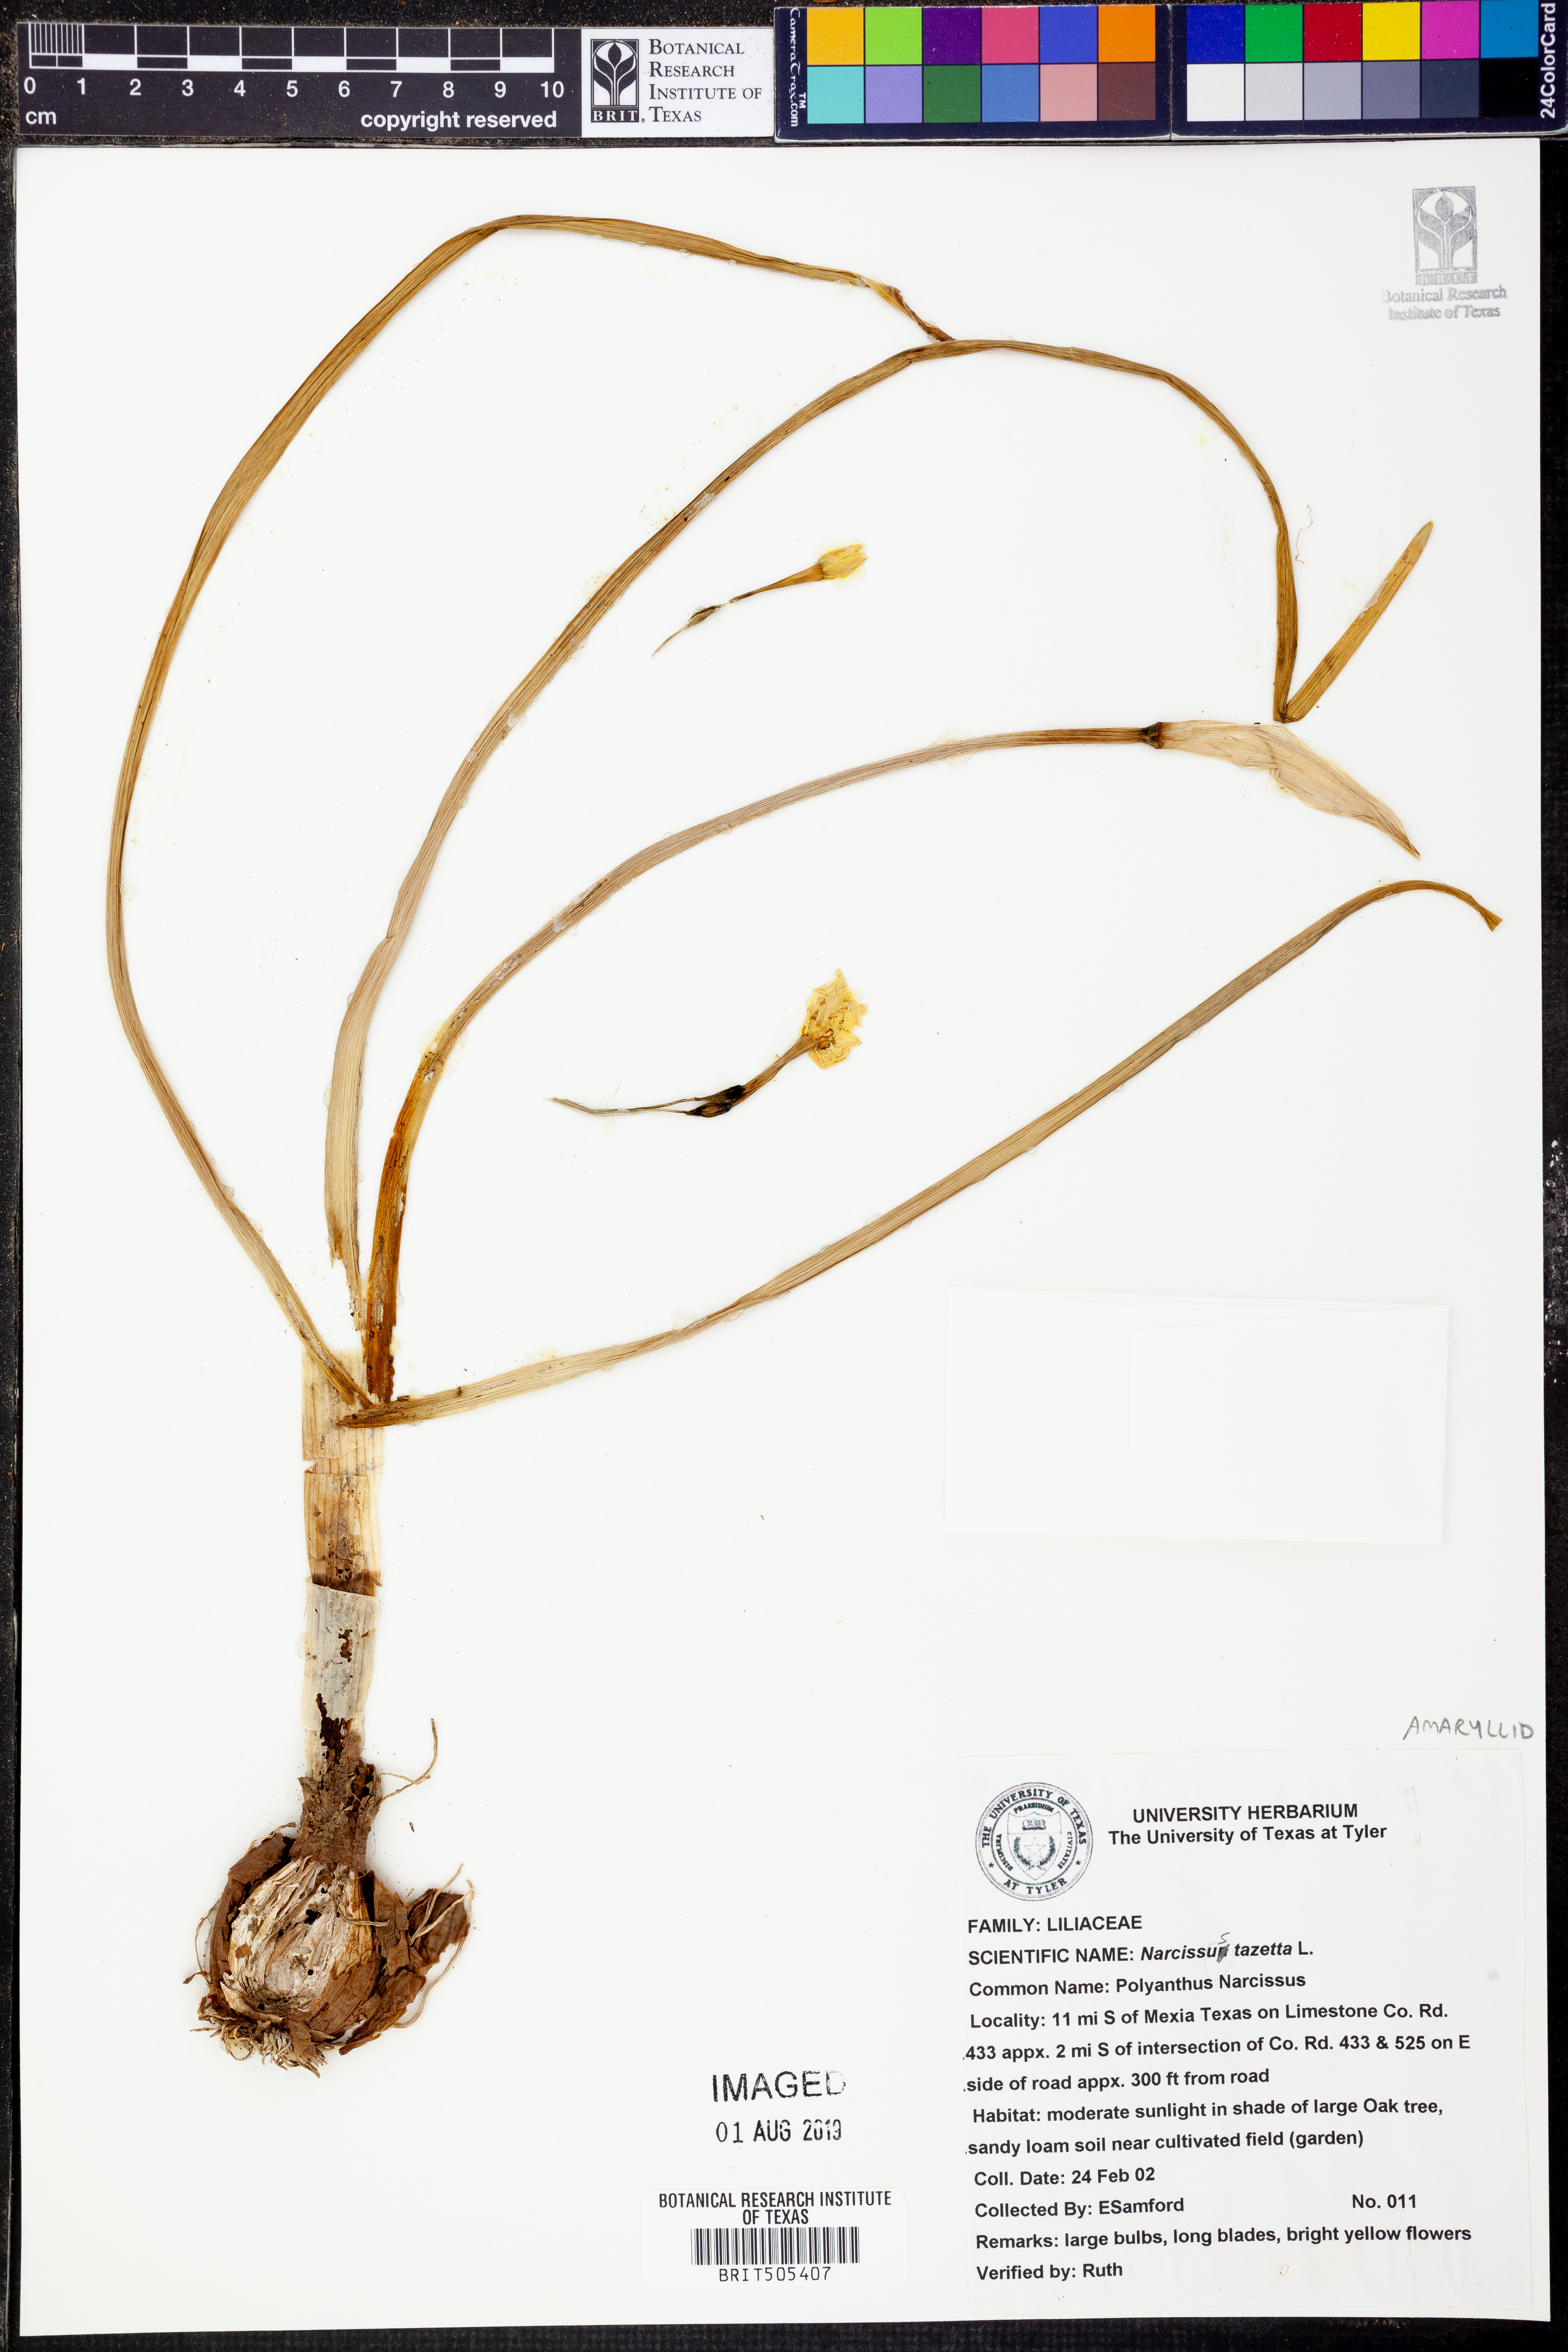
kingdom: Plantae
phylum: Tracheophyta
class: Liliopsida
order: Asparagales
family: Amaryllidaceae
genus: Narcissus
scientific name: Narcissus tazetta
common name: Bunch-flowered daffodil
